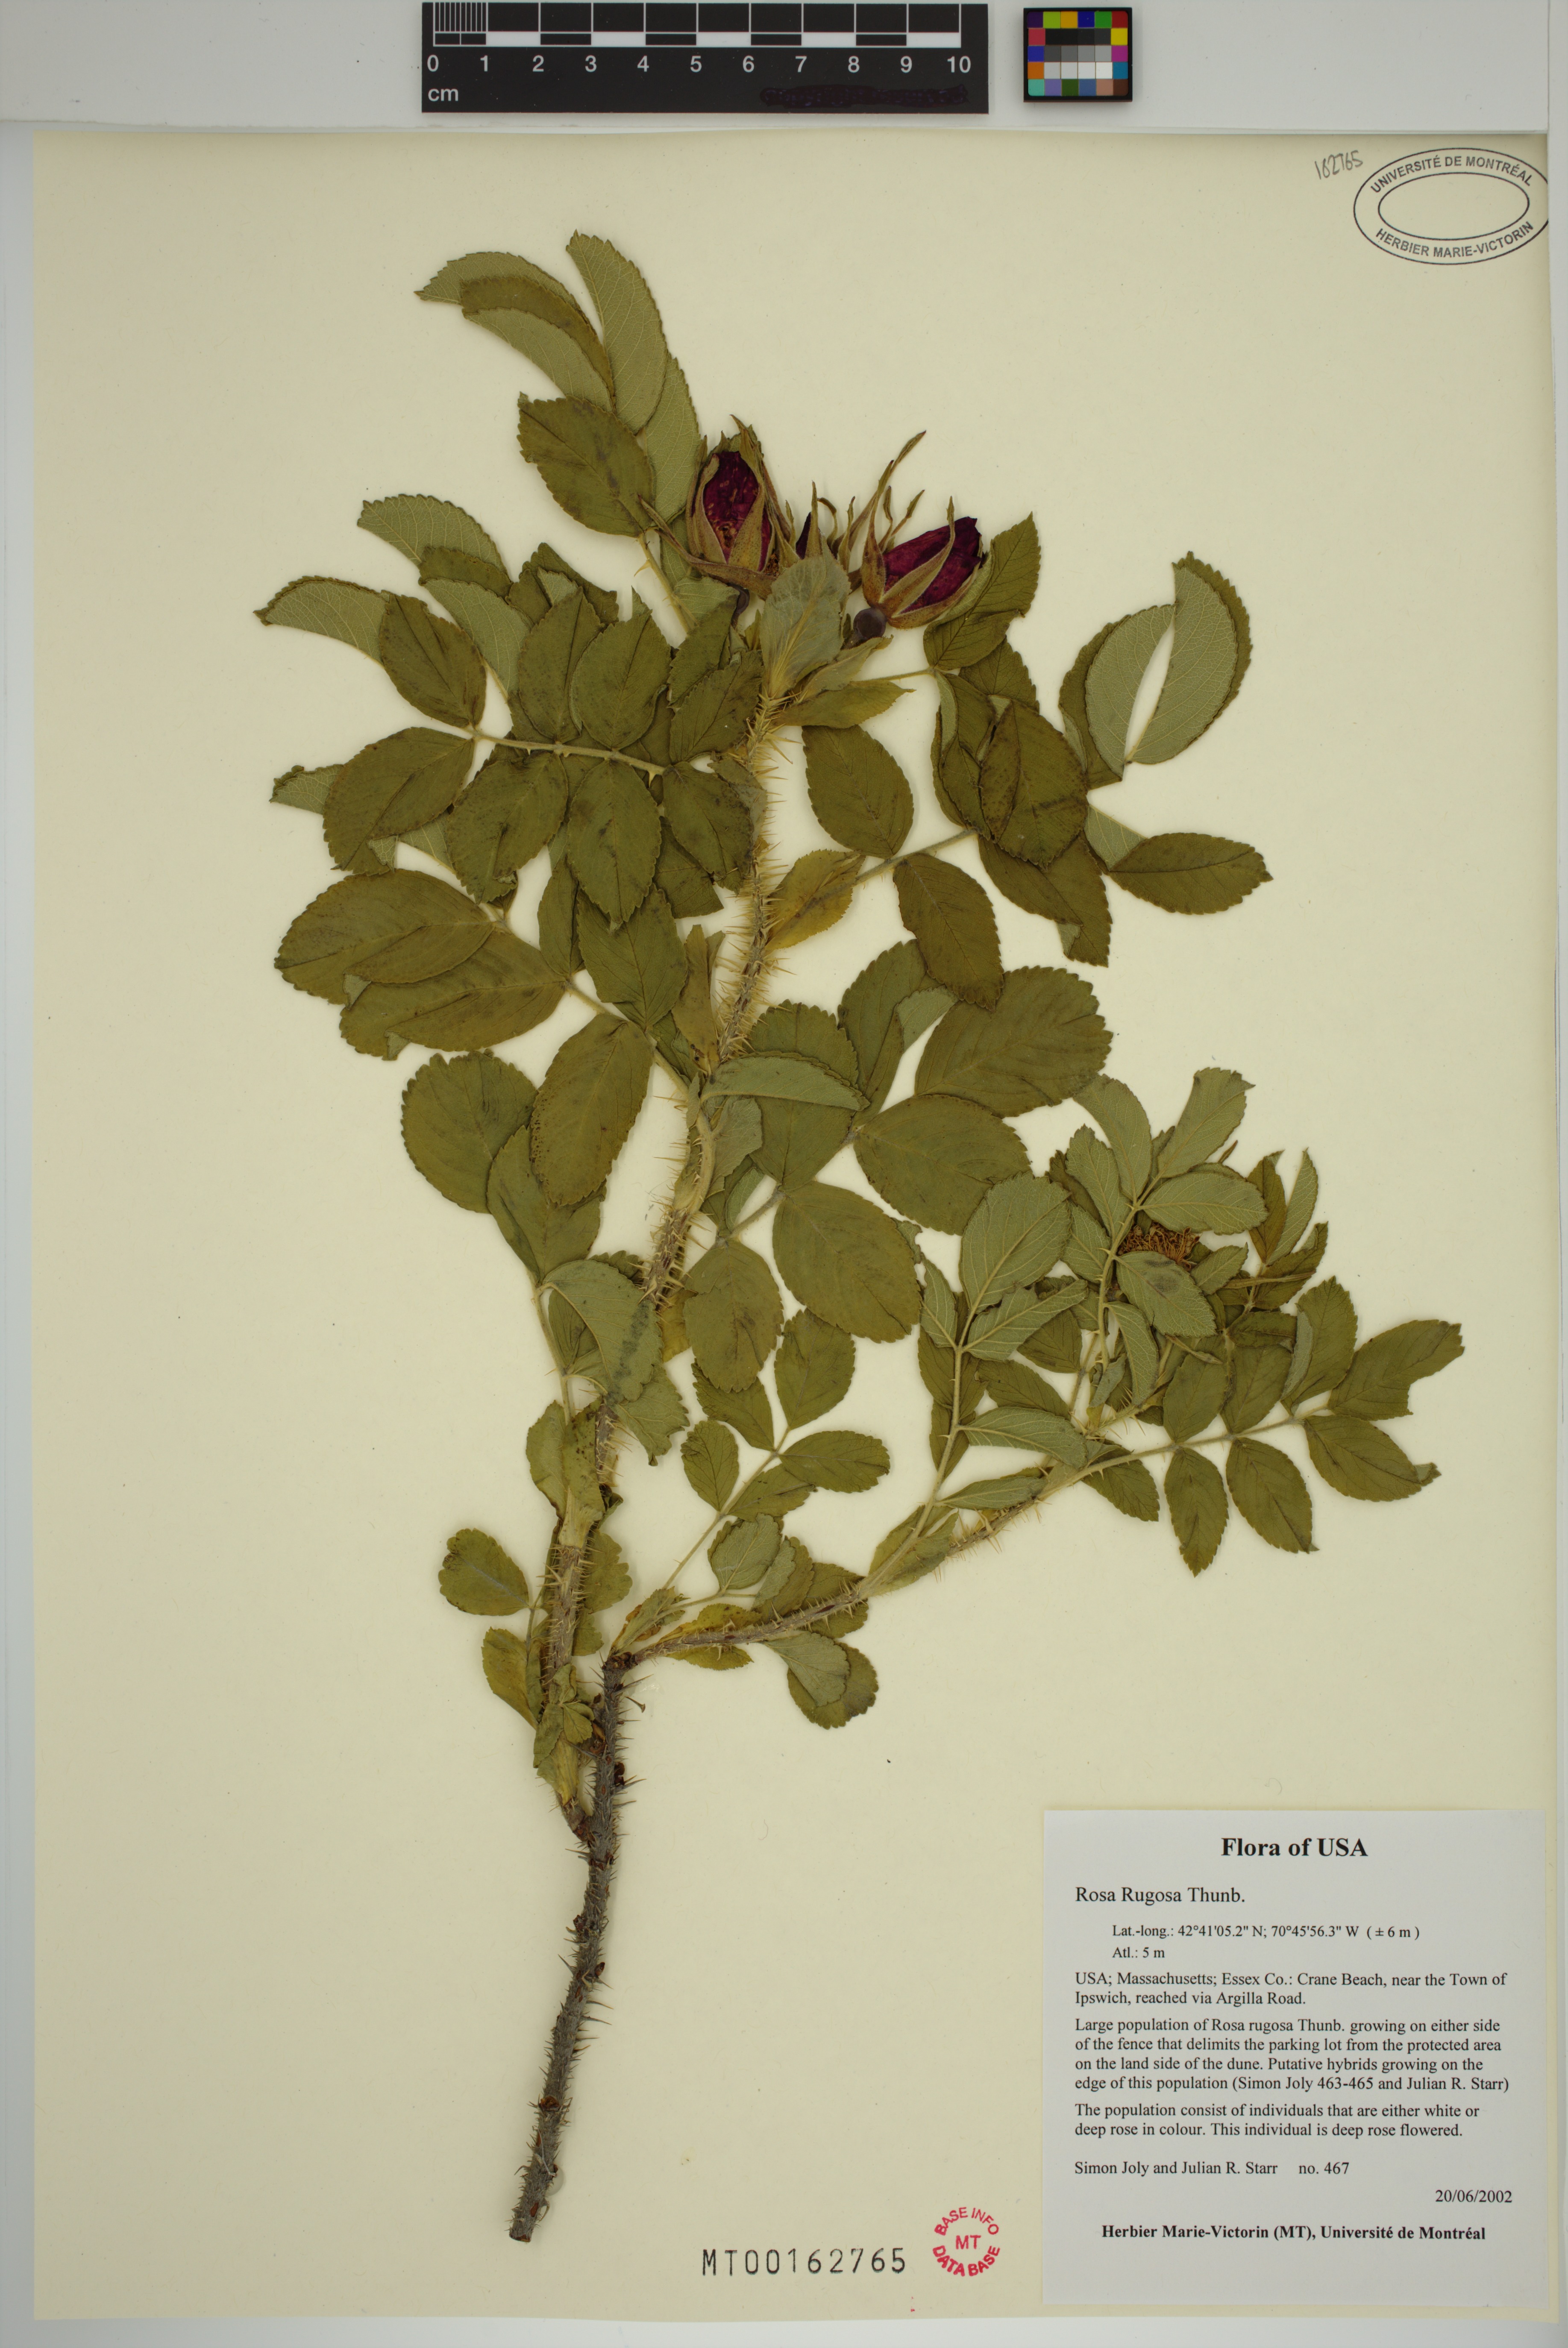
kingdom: Plantae
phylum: Tracheophyta
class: Magnoliopsida
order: Rosales
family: Rosaceae
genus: Rosa
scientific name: Rosa rugosa
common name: Japanese rose
